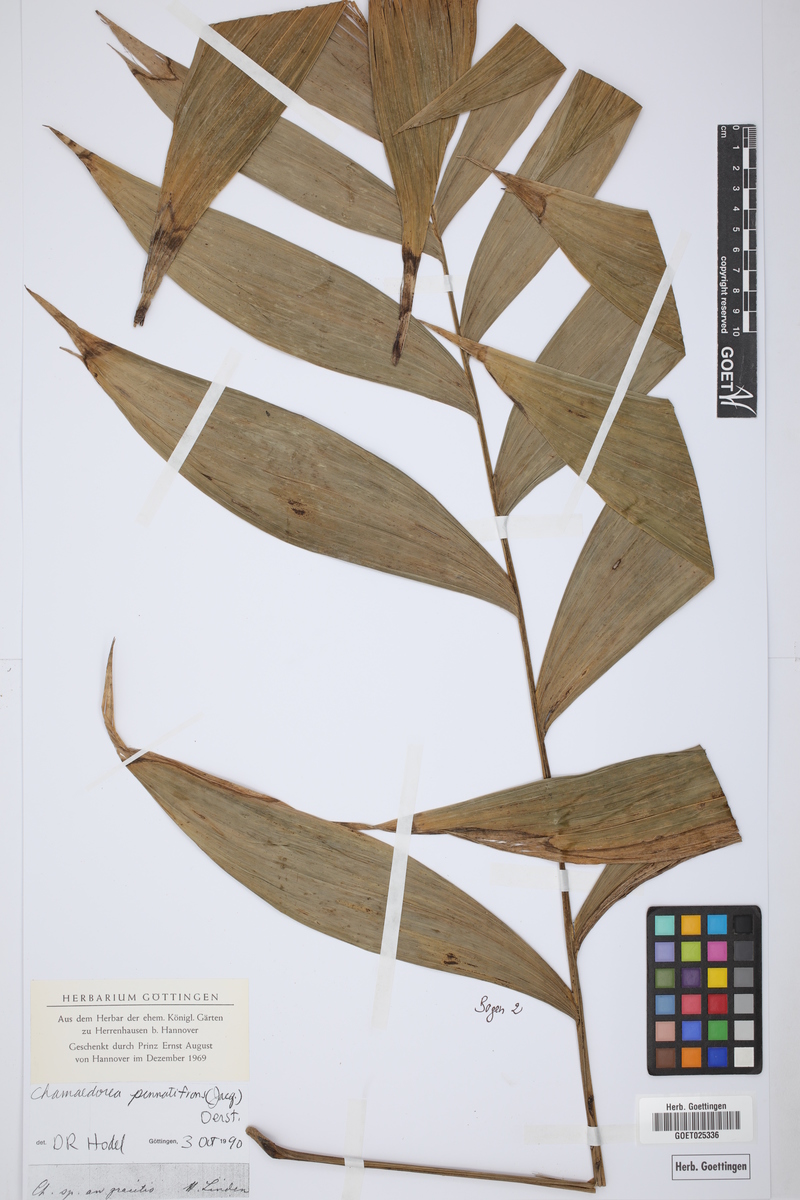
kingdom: Plantae
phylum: Tracheophyta
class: Liliopsida
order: Arecales
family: Arecaceae
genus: Chamaedorea
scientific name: Chamaedorea pinnatifrons
